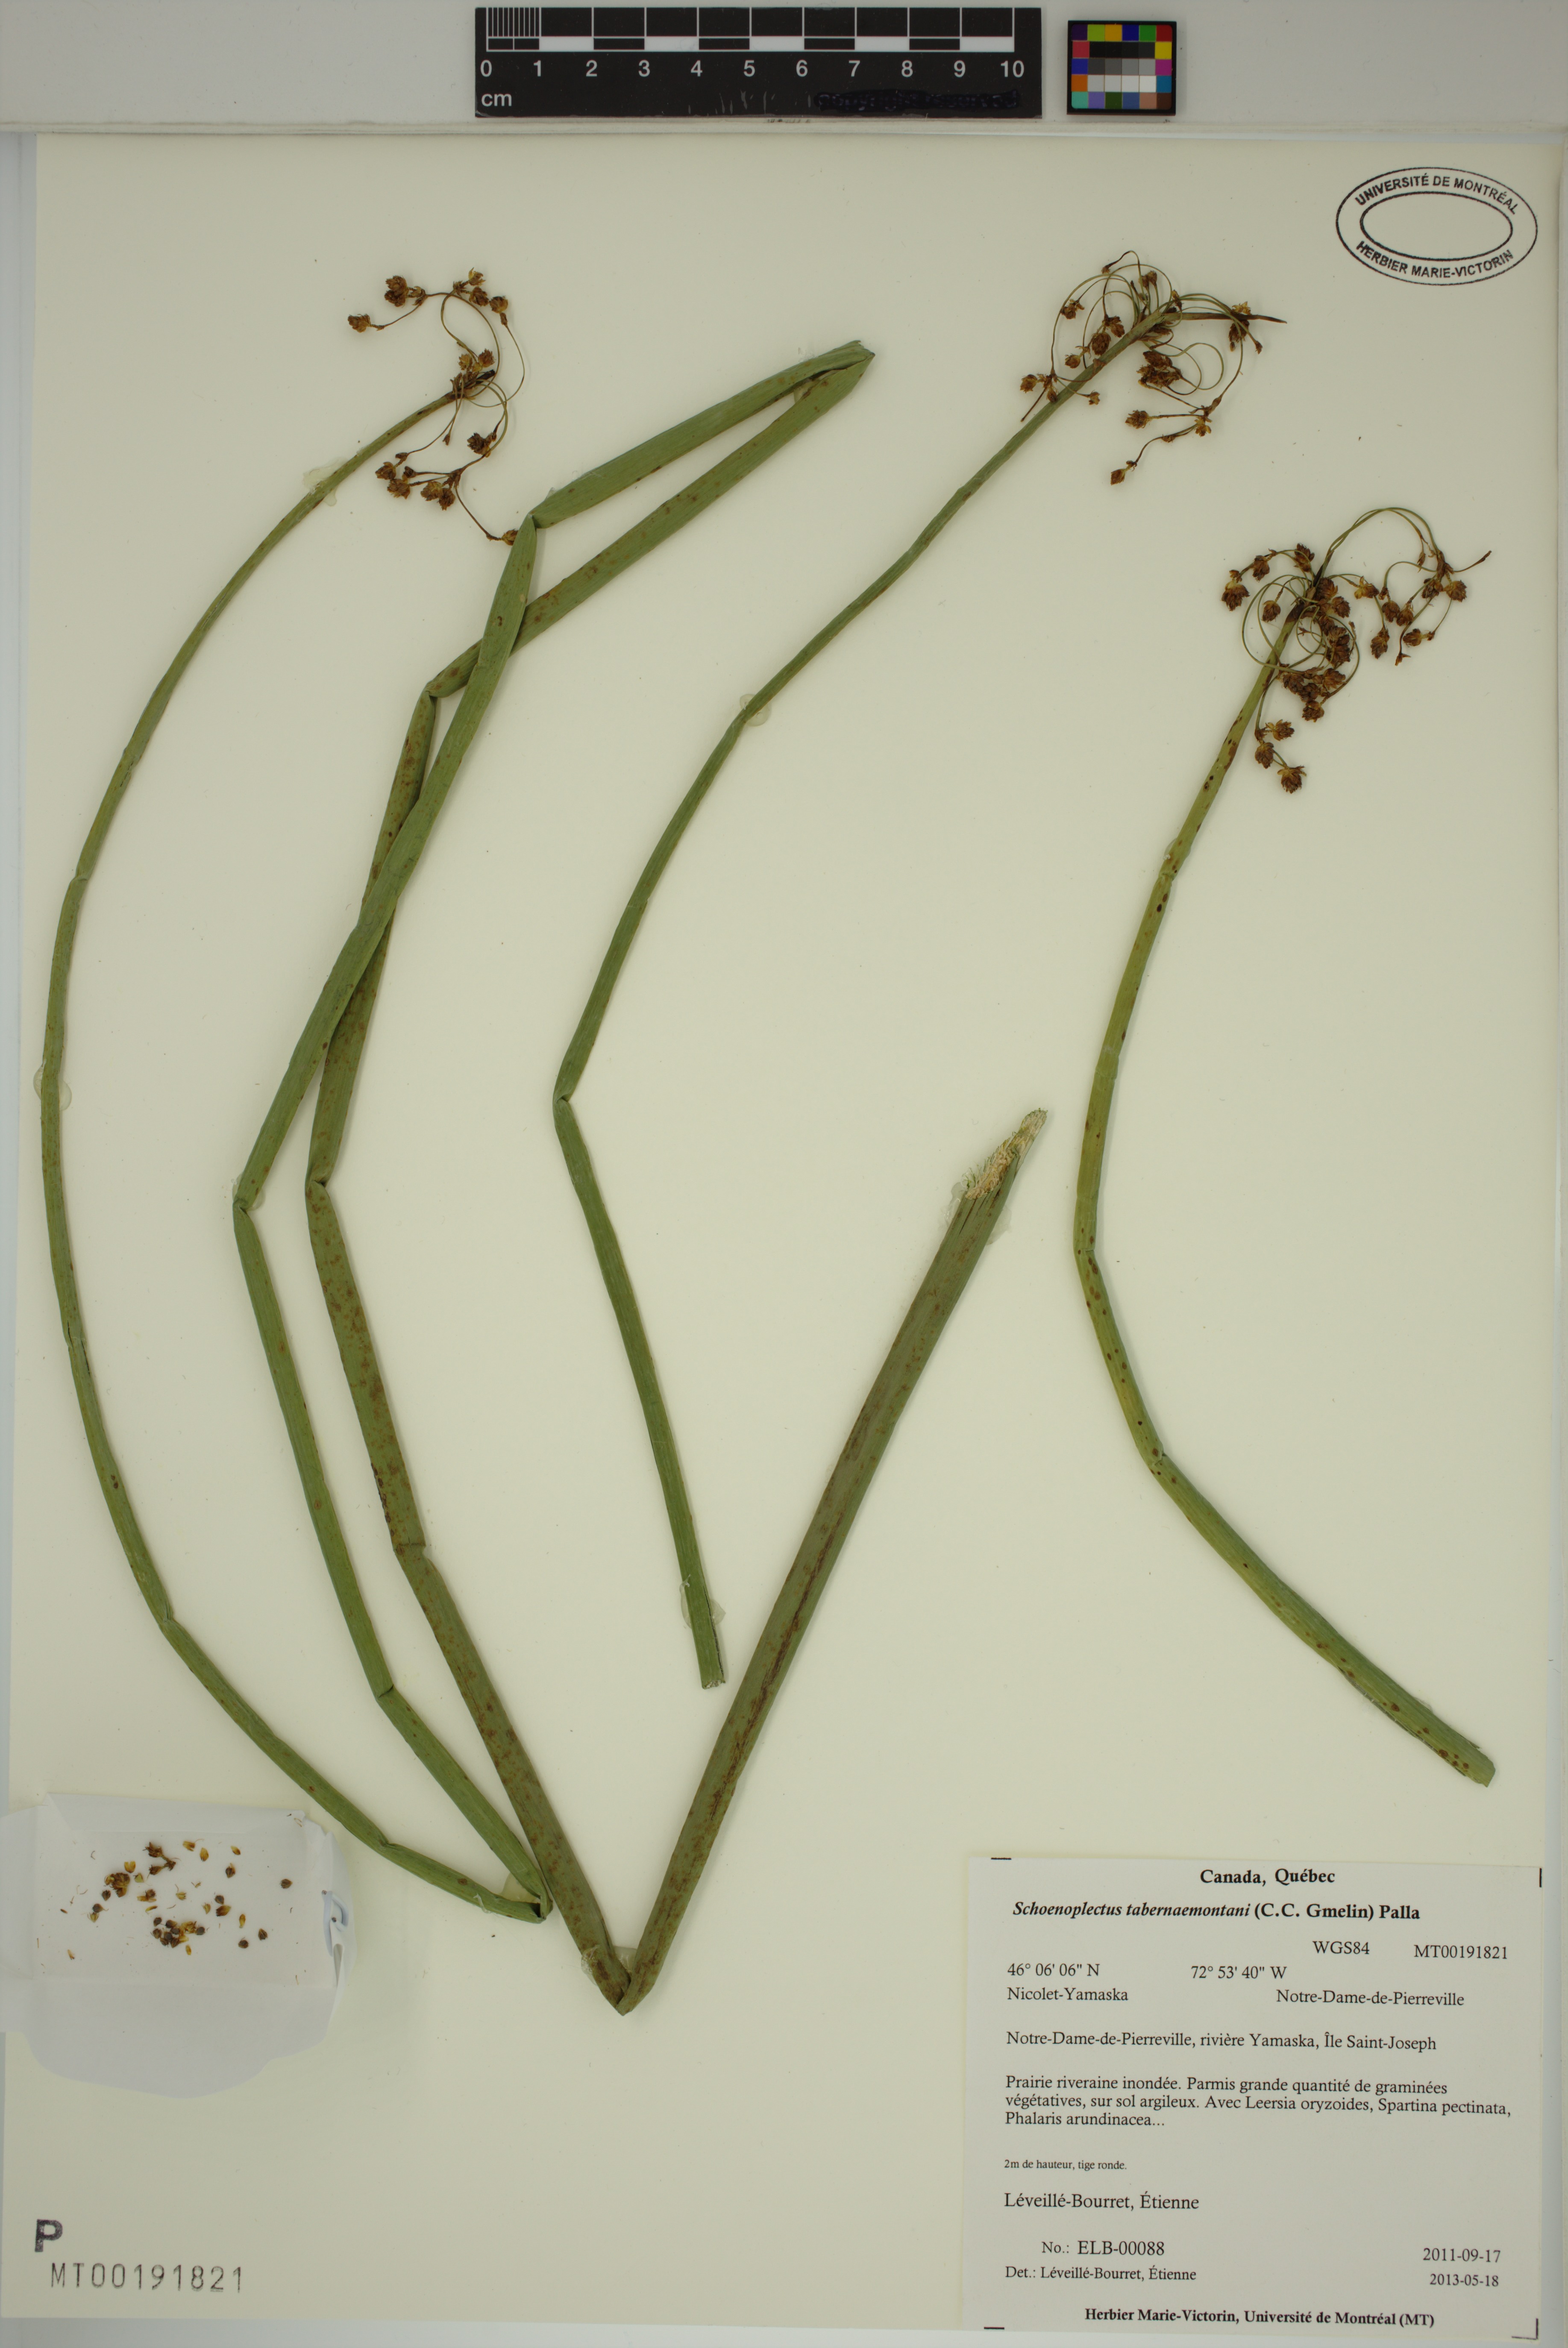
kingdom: Plantae
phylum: Tracheophyta
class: Liliopsida
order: Poales
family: Cyperaceae
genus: Schoenoplectus
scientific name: Schoenoplectus tabernaemontani
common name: Grey club-rush
